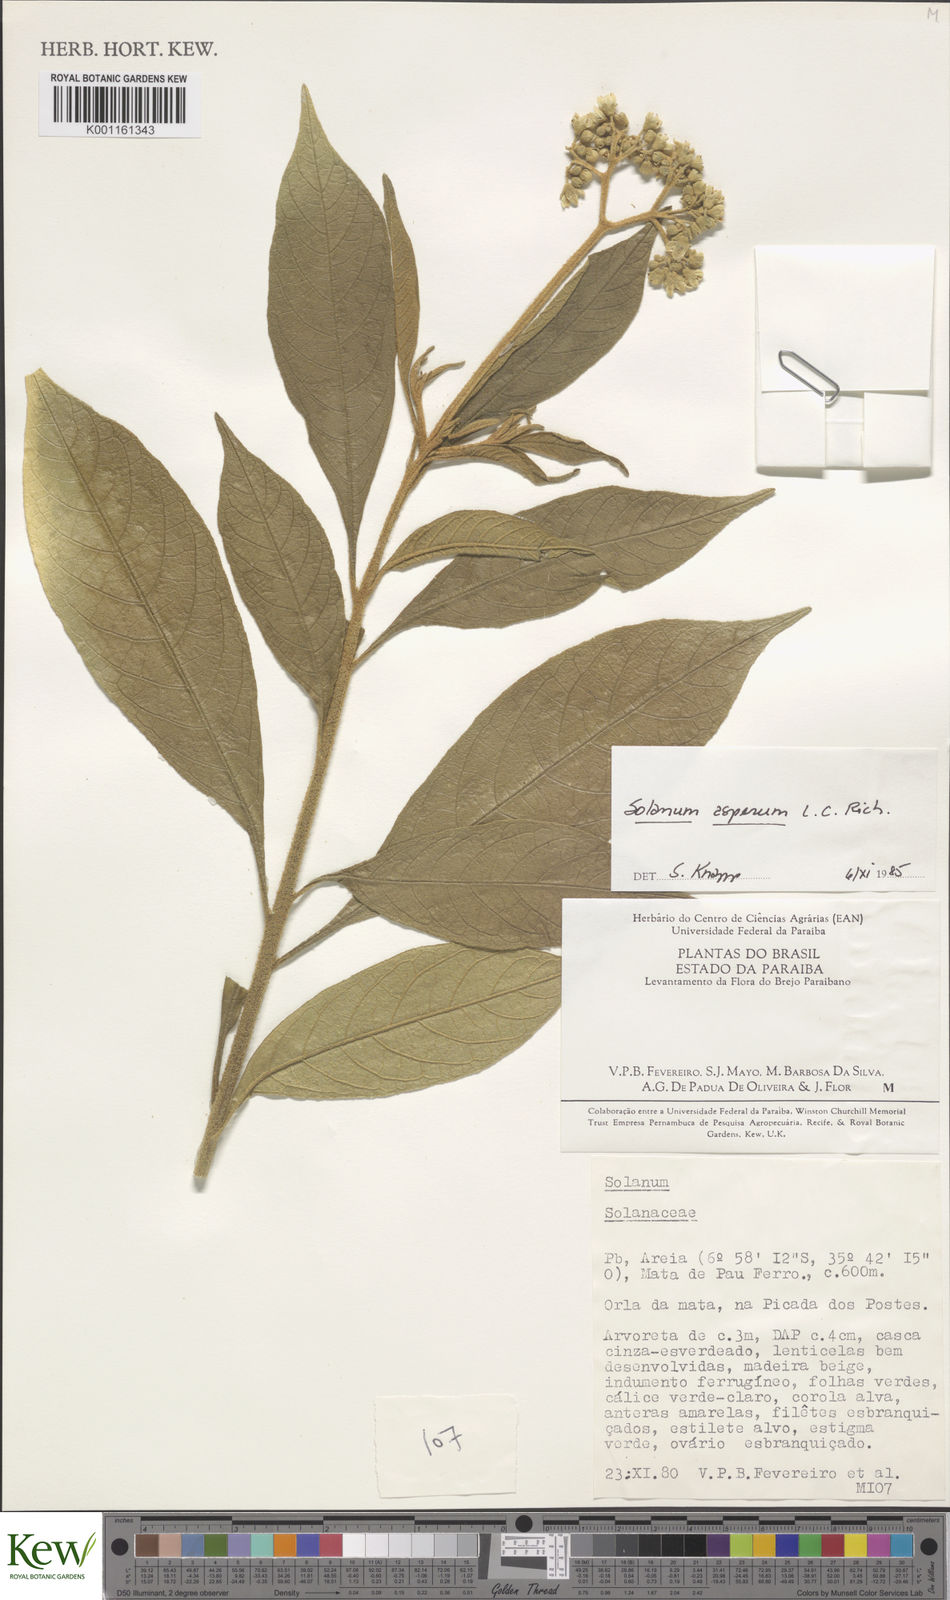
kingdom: Plantae
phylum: Tracheophyta
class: Magnoliopsida
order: Solanales
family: Solanaceae
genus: Solanum
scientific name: Solanum asperum
